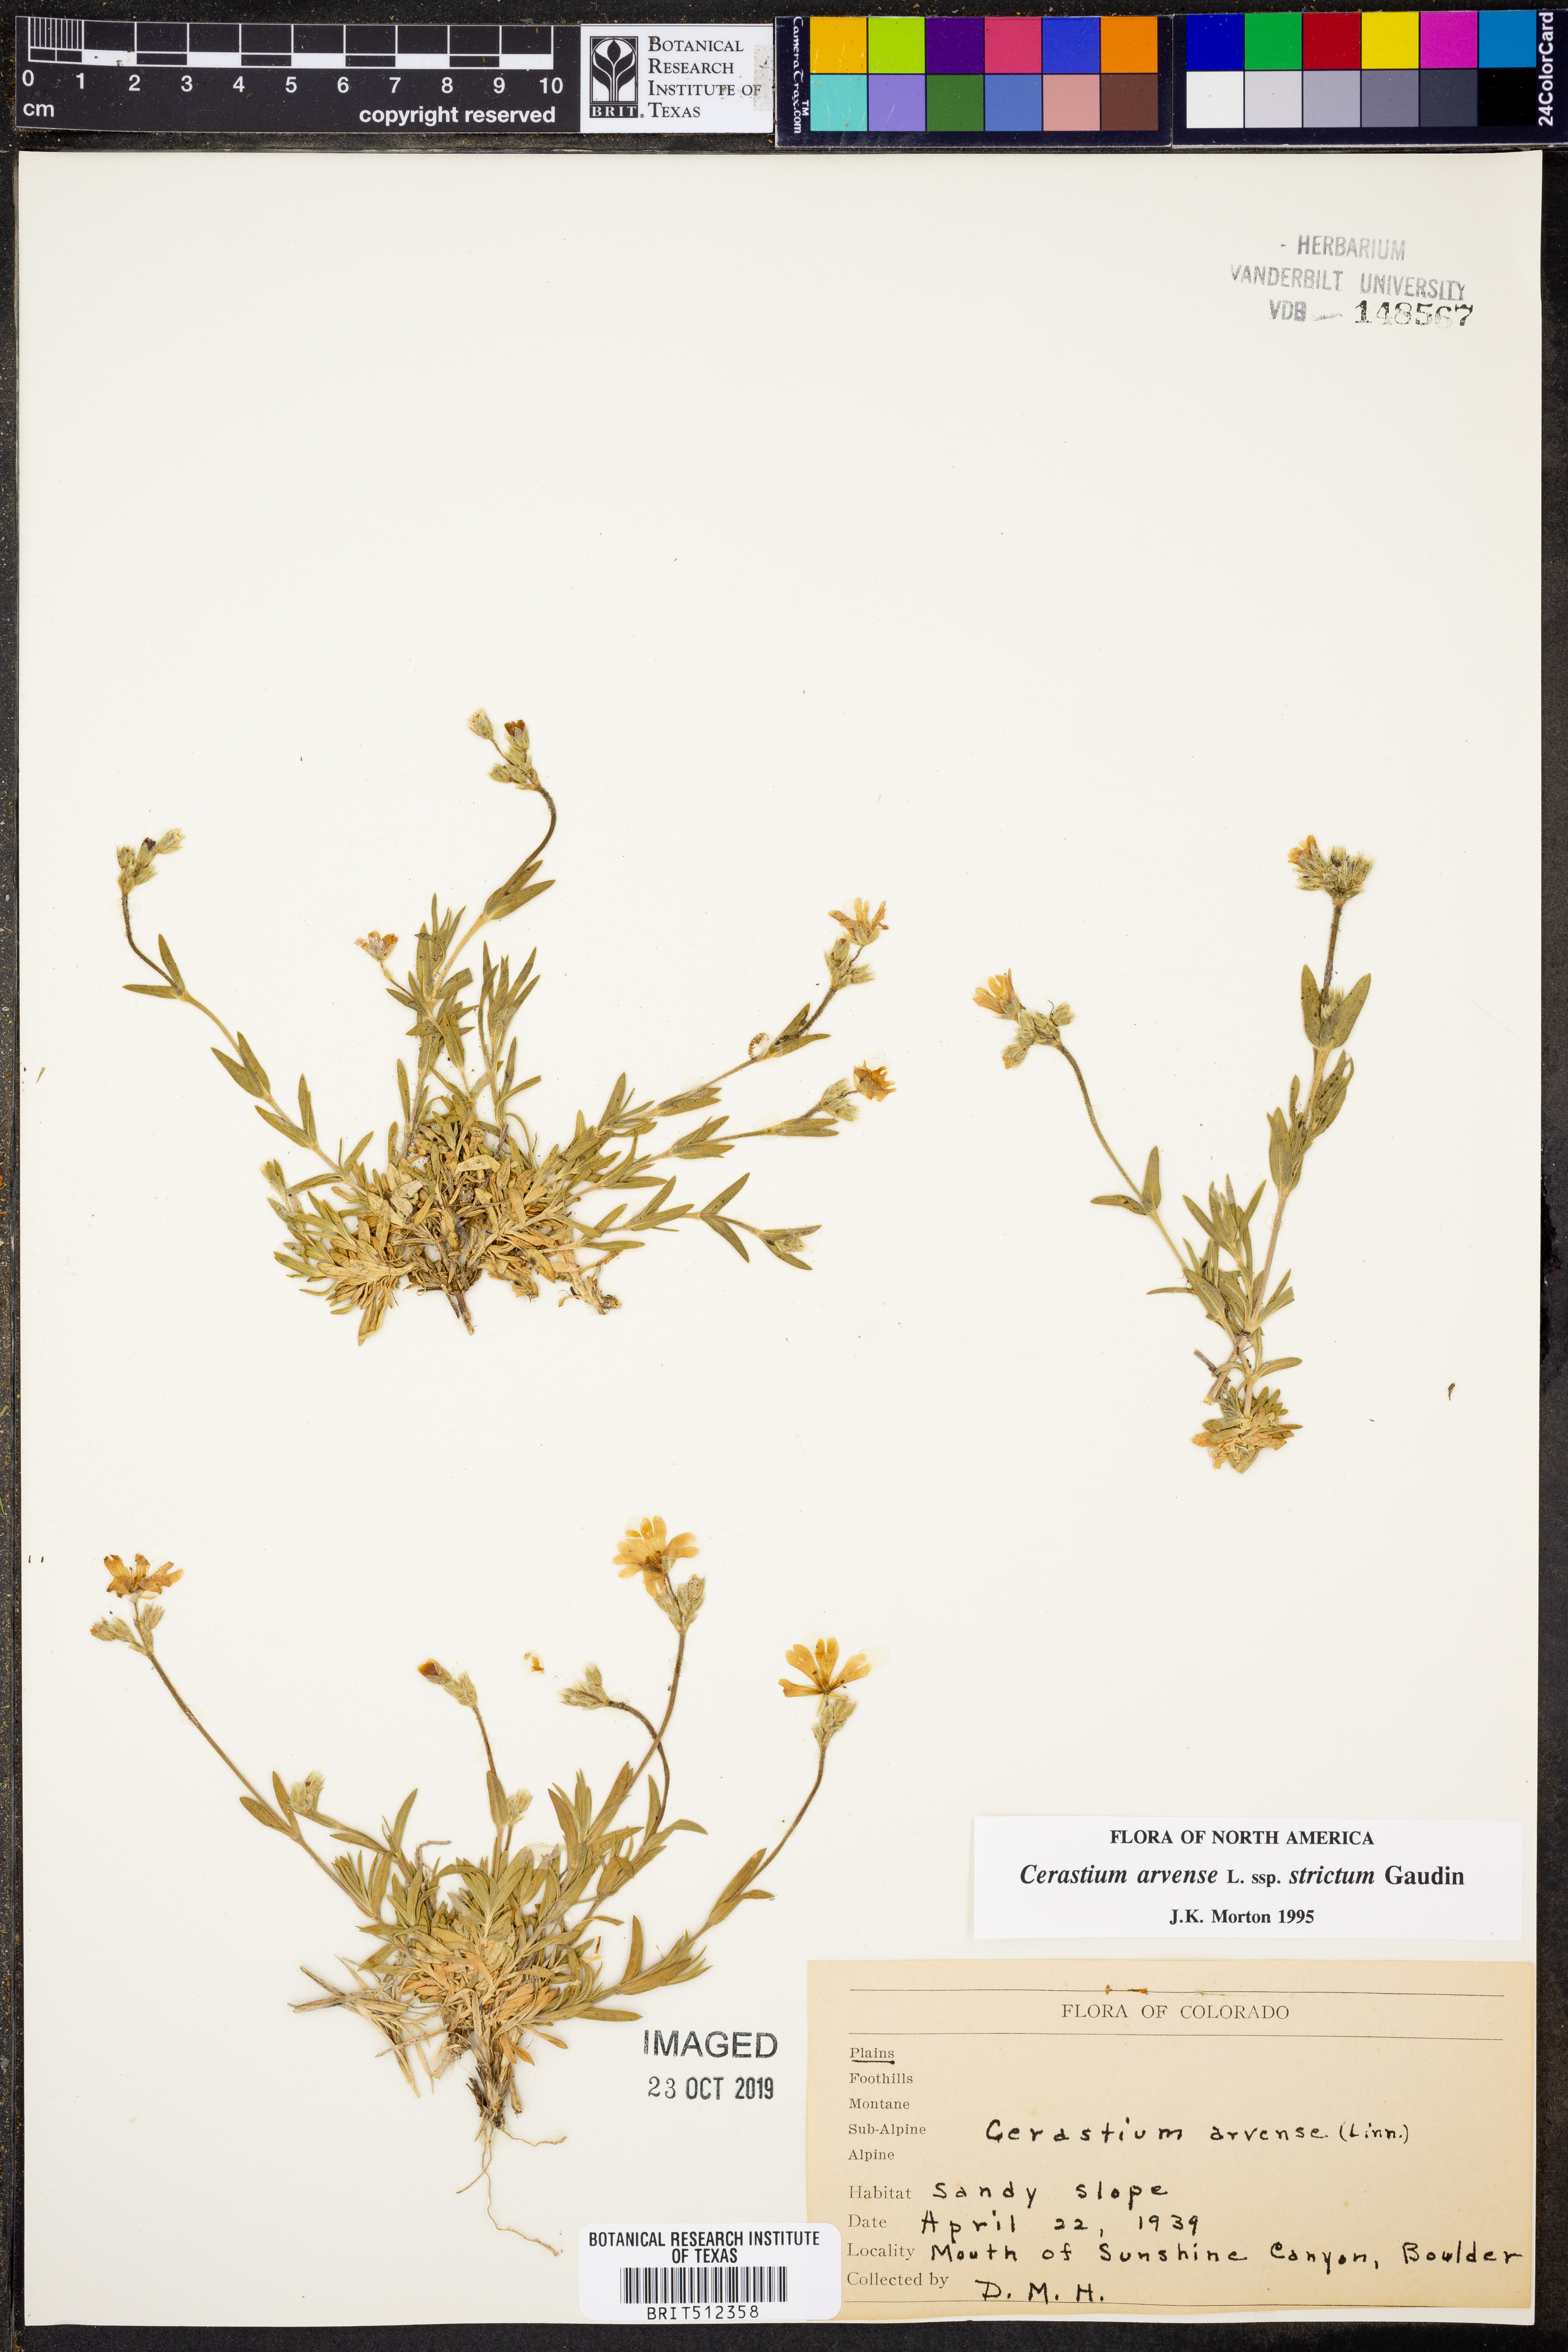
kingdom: Plantae
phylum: Tracheophyta
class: Magnoliopsida
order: Caryophyllales
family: Caryophyllaceae
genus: Cerastium
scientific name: Cerastium elongatum
